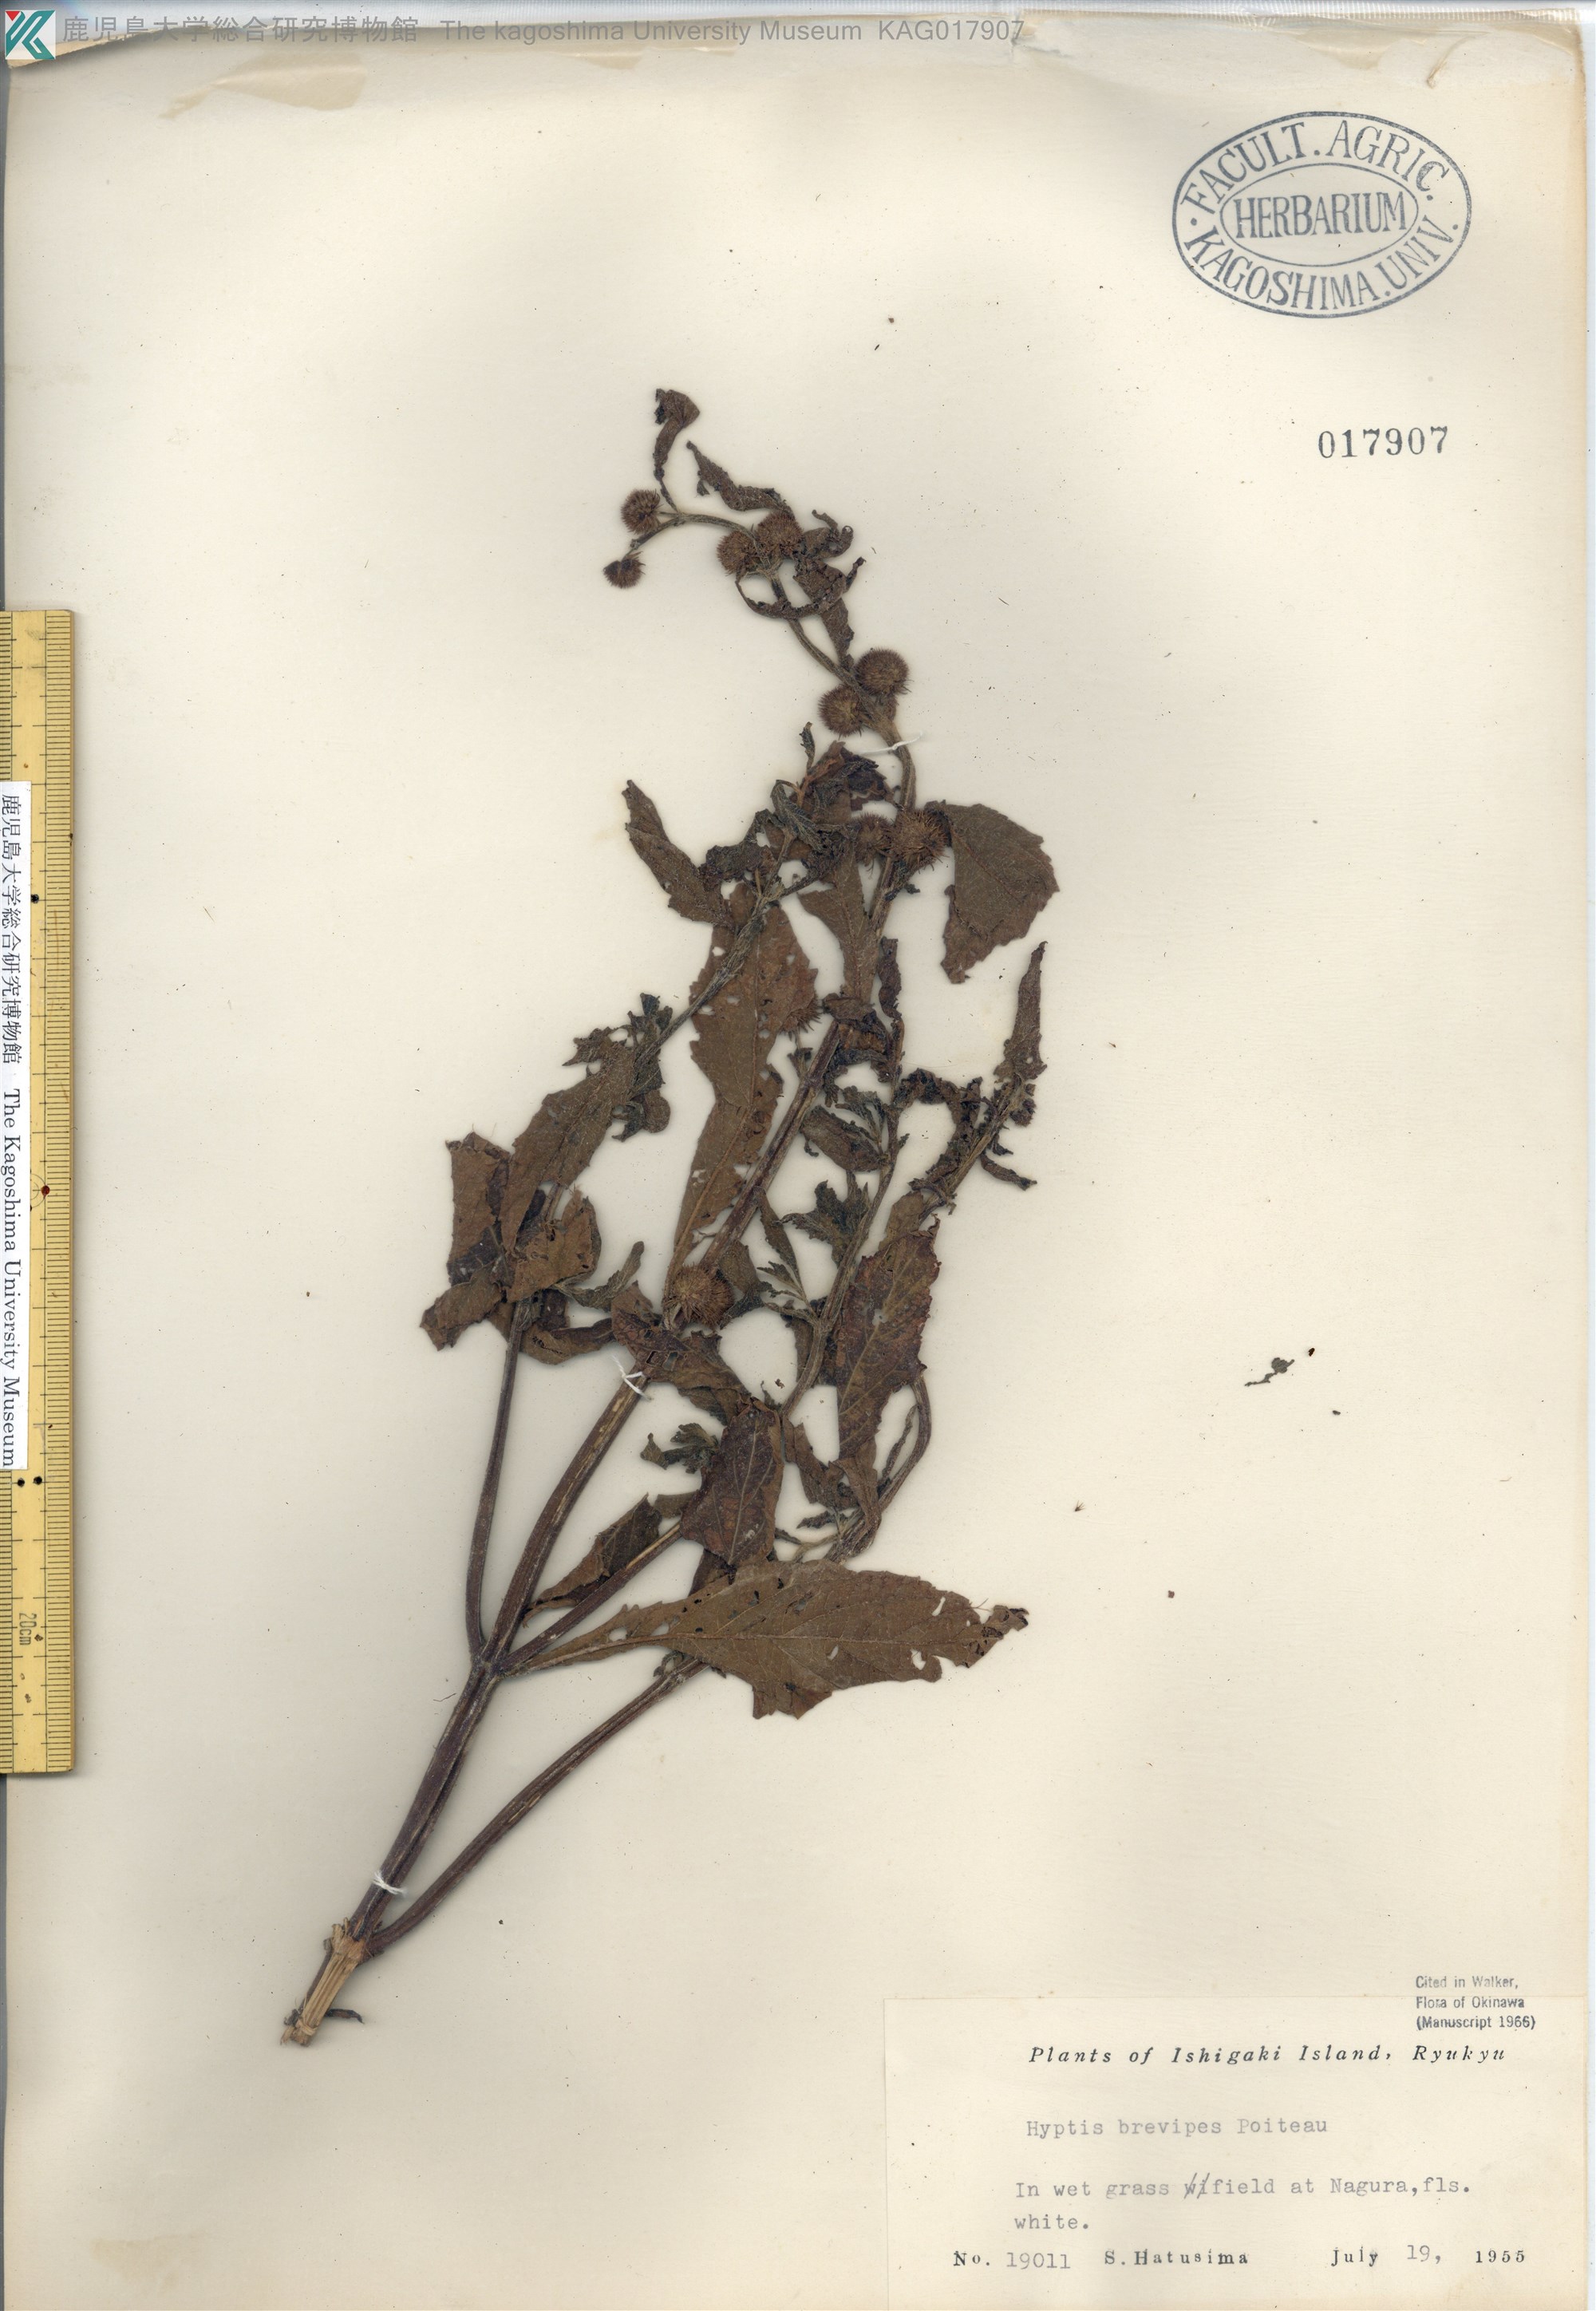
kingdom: Plantae
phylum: Tracheophyta
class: Magnoliopsida
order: Lamiales
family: Lamiaceae
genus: Hyptis
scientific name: Hyptis brevipes
